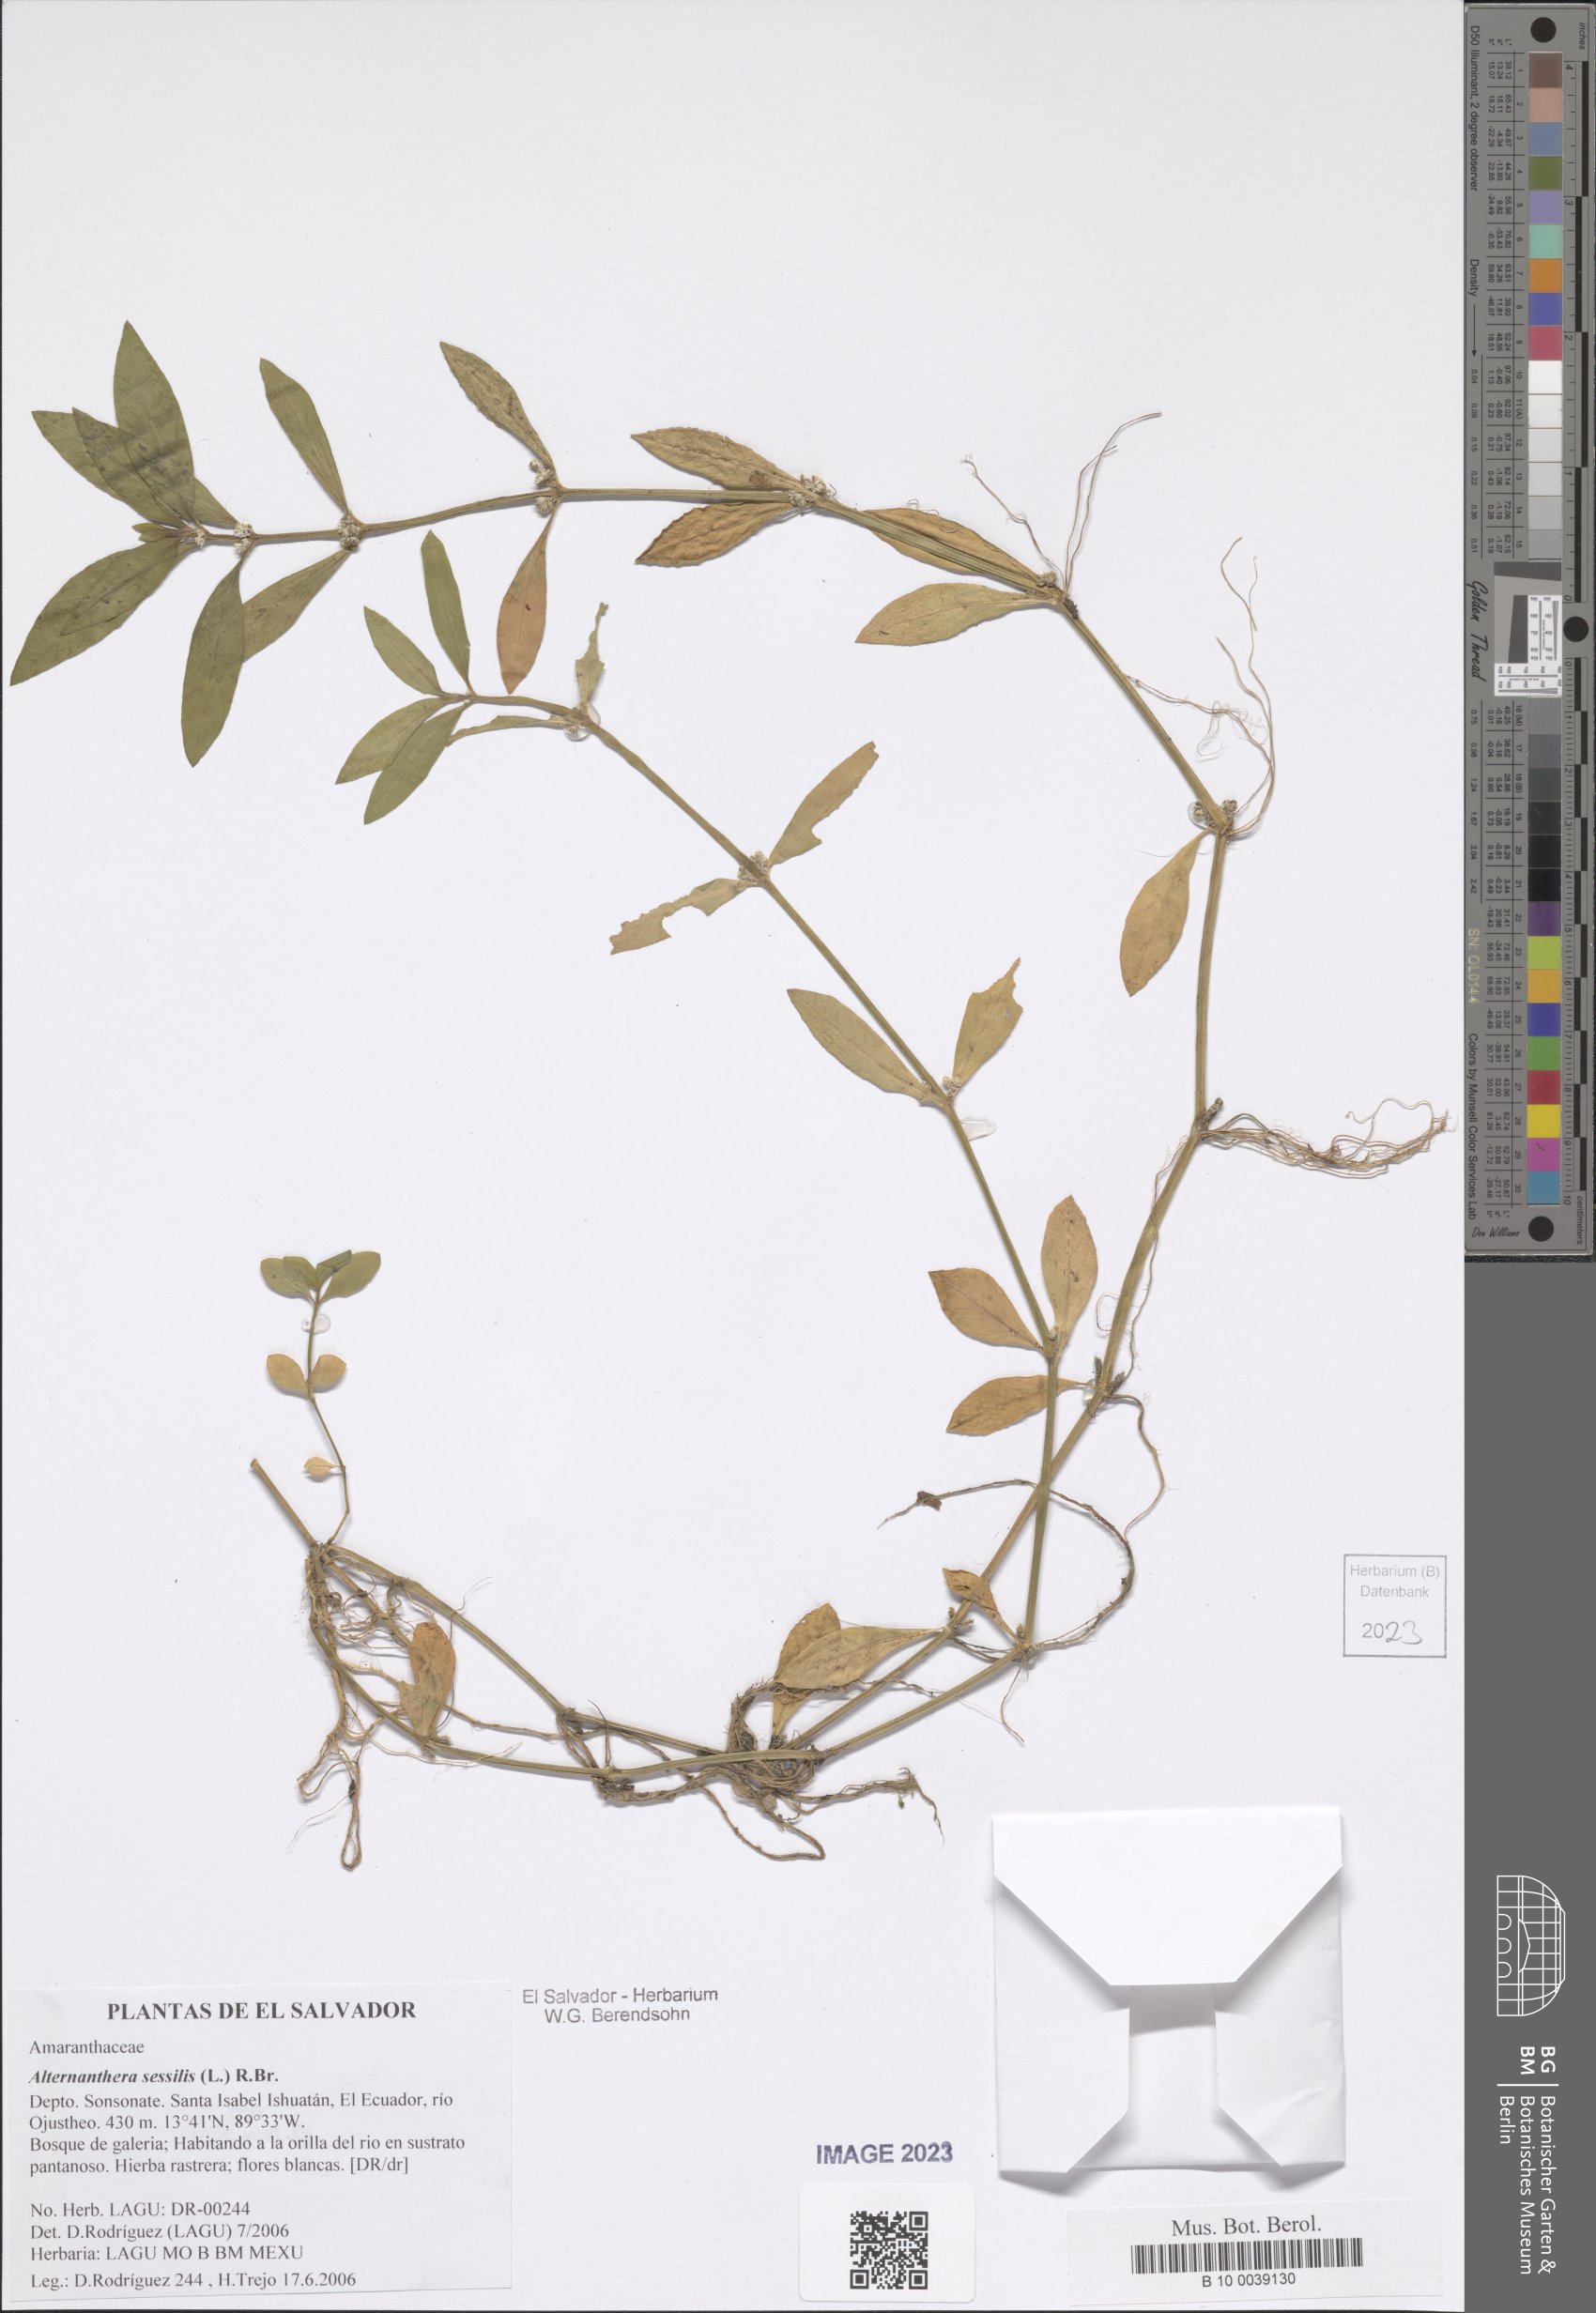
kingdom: Plantae
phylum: Tracheophyta
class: Magnoliopsida
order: Caryophyllales
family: Amaranthaceae
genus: Alternanthera
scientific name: Alternanthera sessilis
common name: Sessile joyweed
